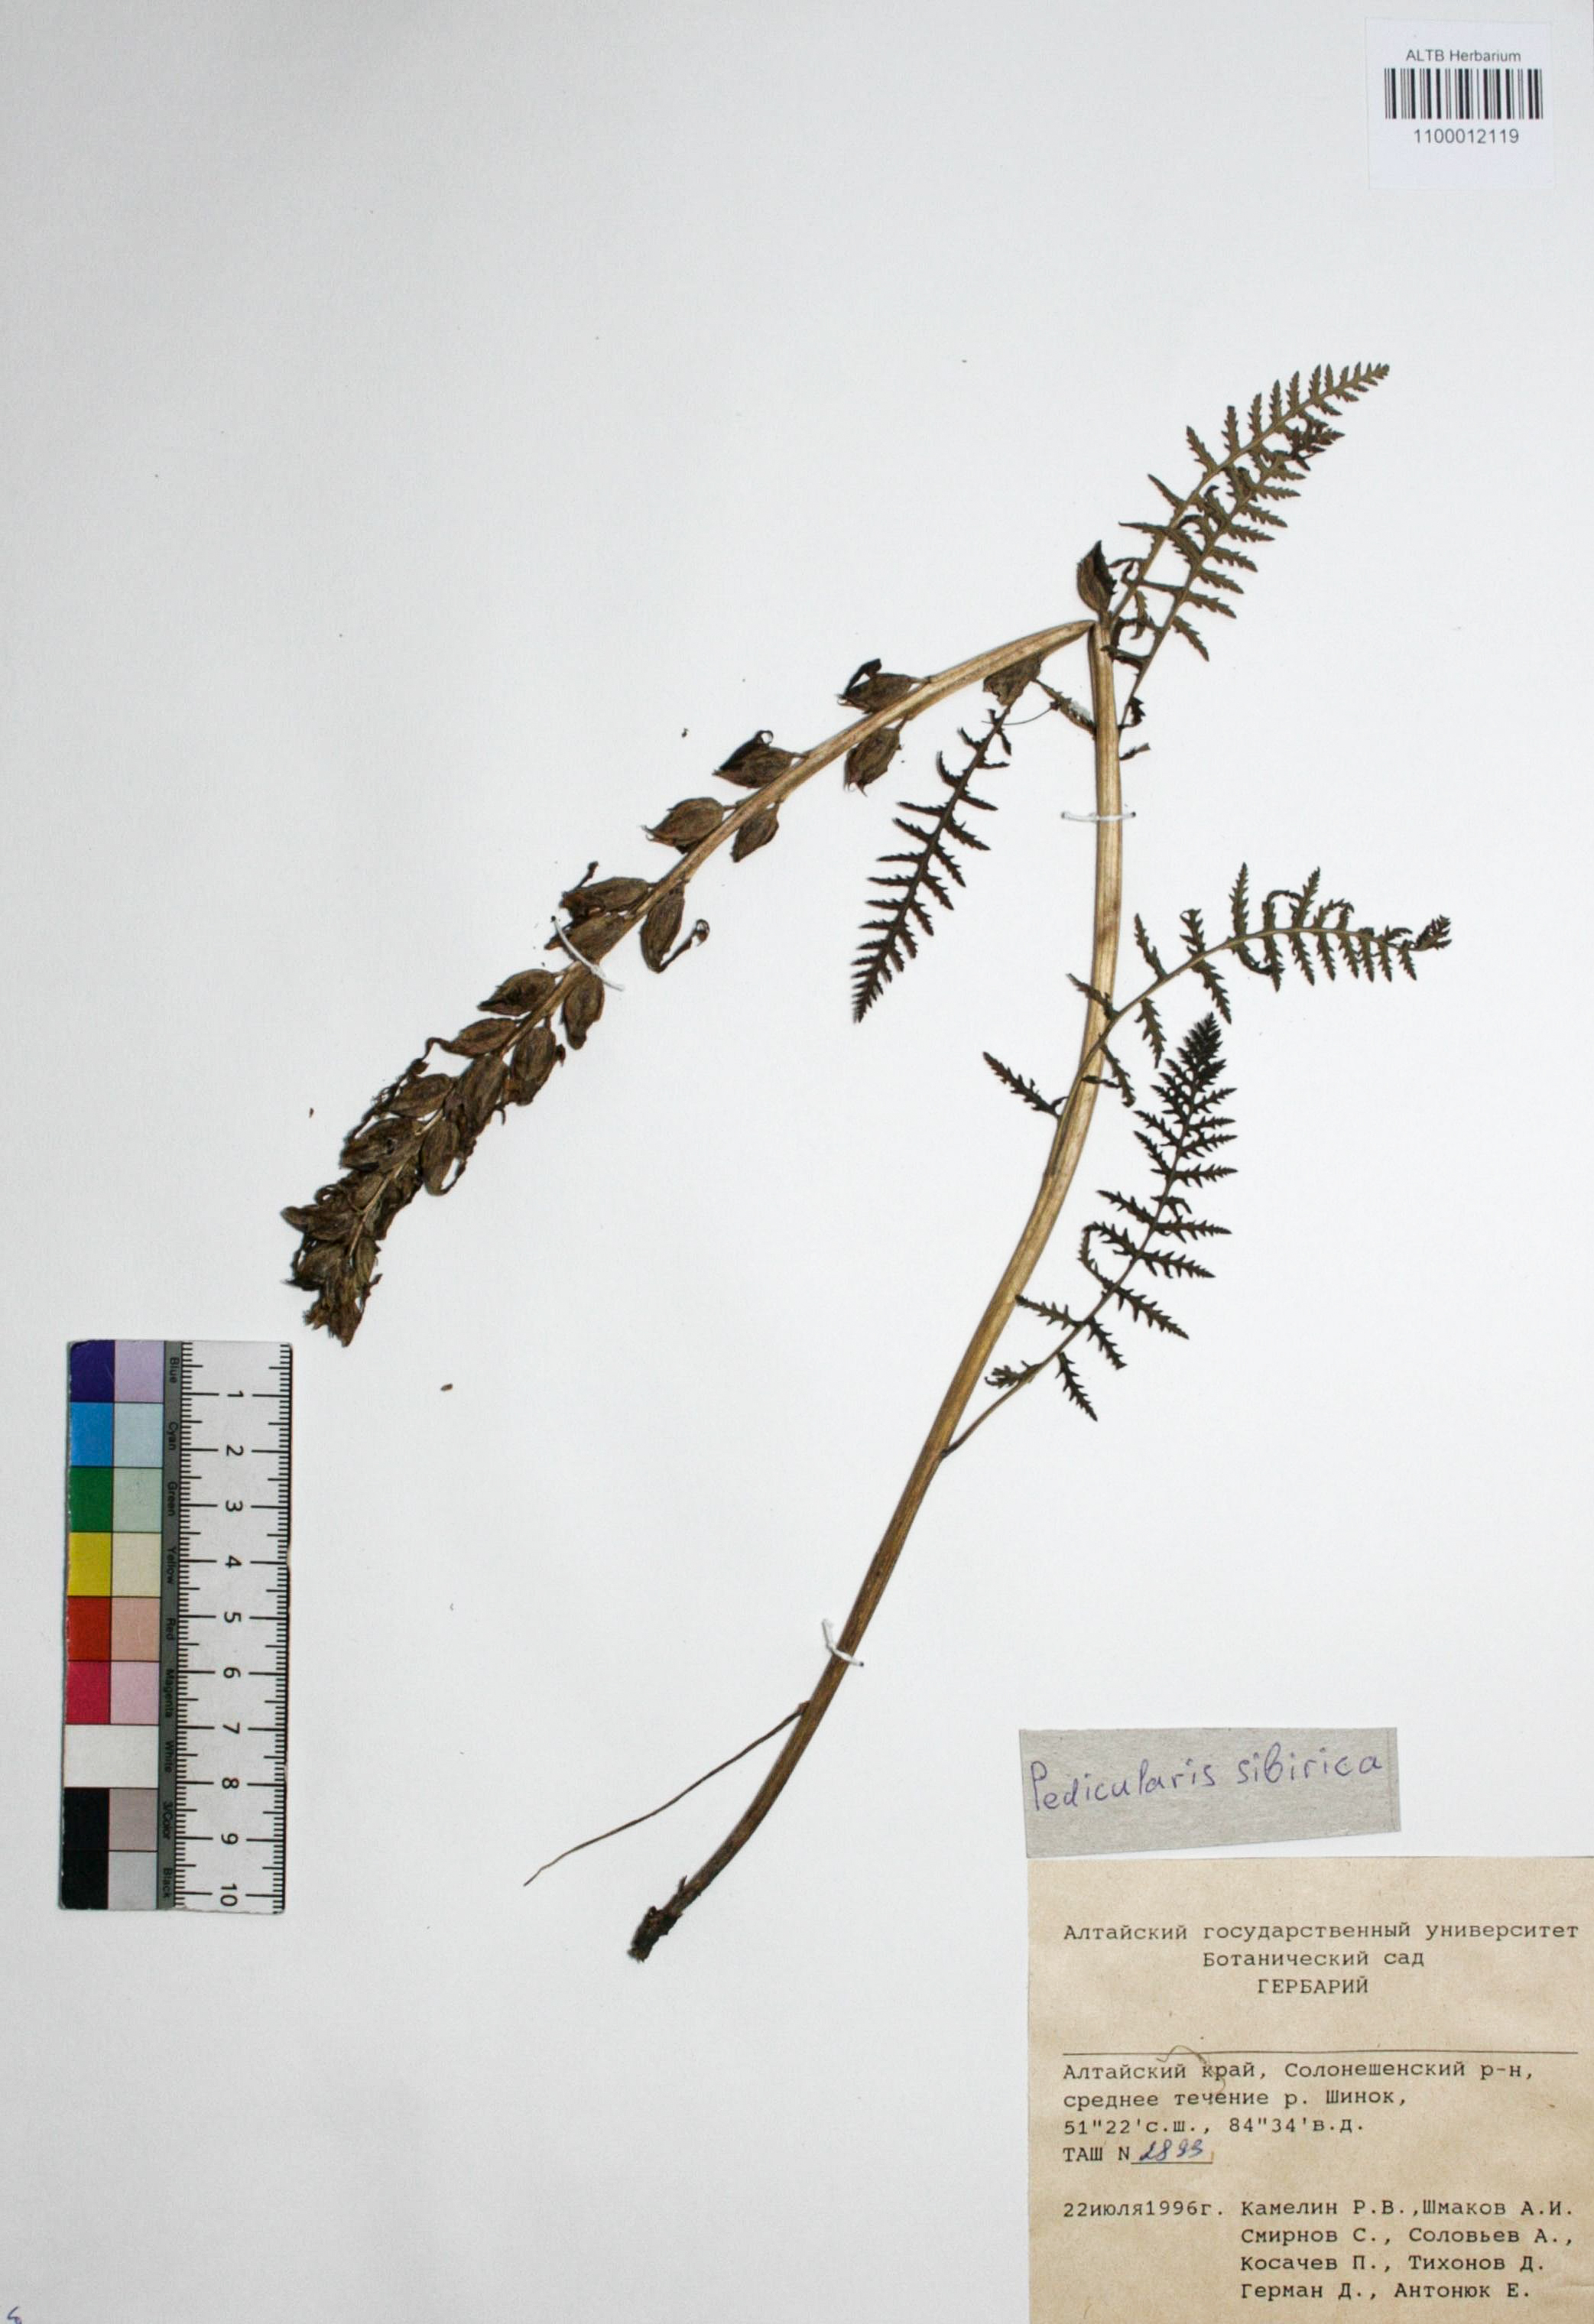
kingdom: Plantae
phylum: Tracheophyta
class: Magnoliopsida
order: Lamiales
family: Orobanchaceae
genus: Pedicularis
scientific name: Pedicularis sibirica
